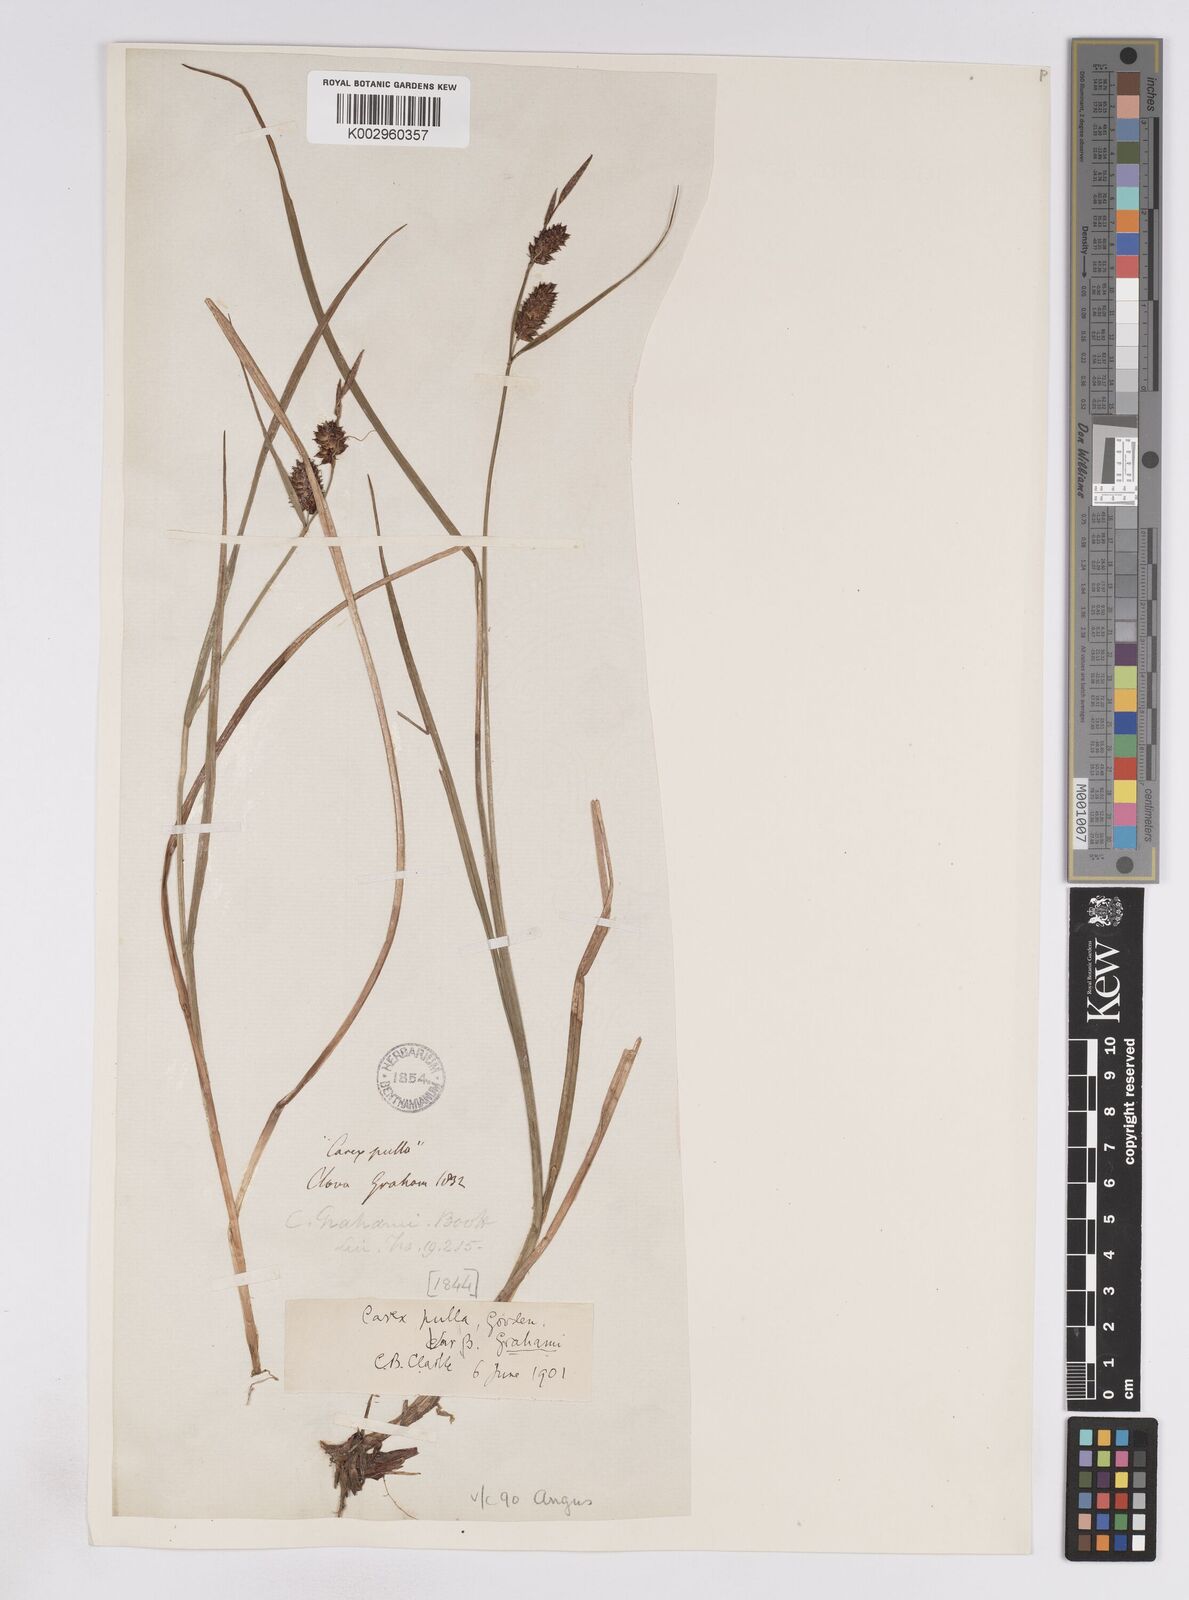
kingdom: Plantae
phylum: Tracheophyta
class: Liliopsida
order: Poales
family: Cyperaceae
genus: Carex
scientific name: Carex vesicaria
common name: Bladder-sedge
